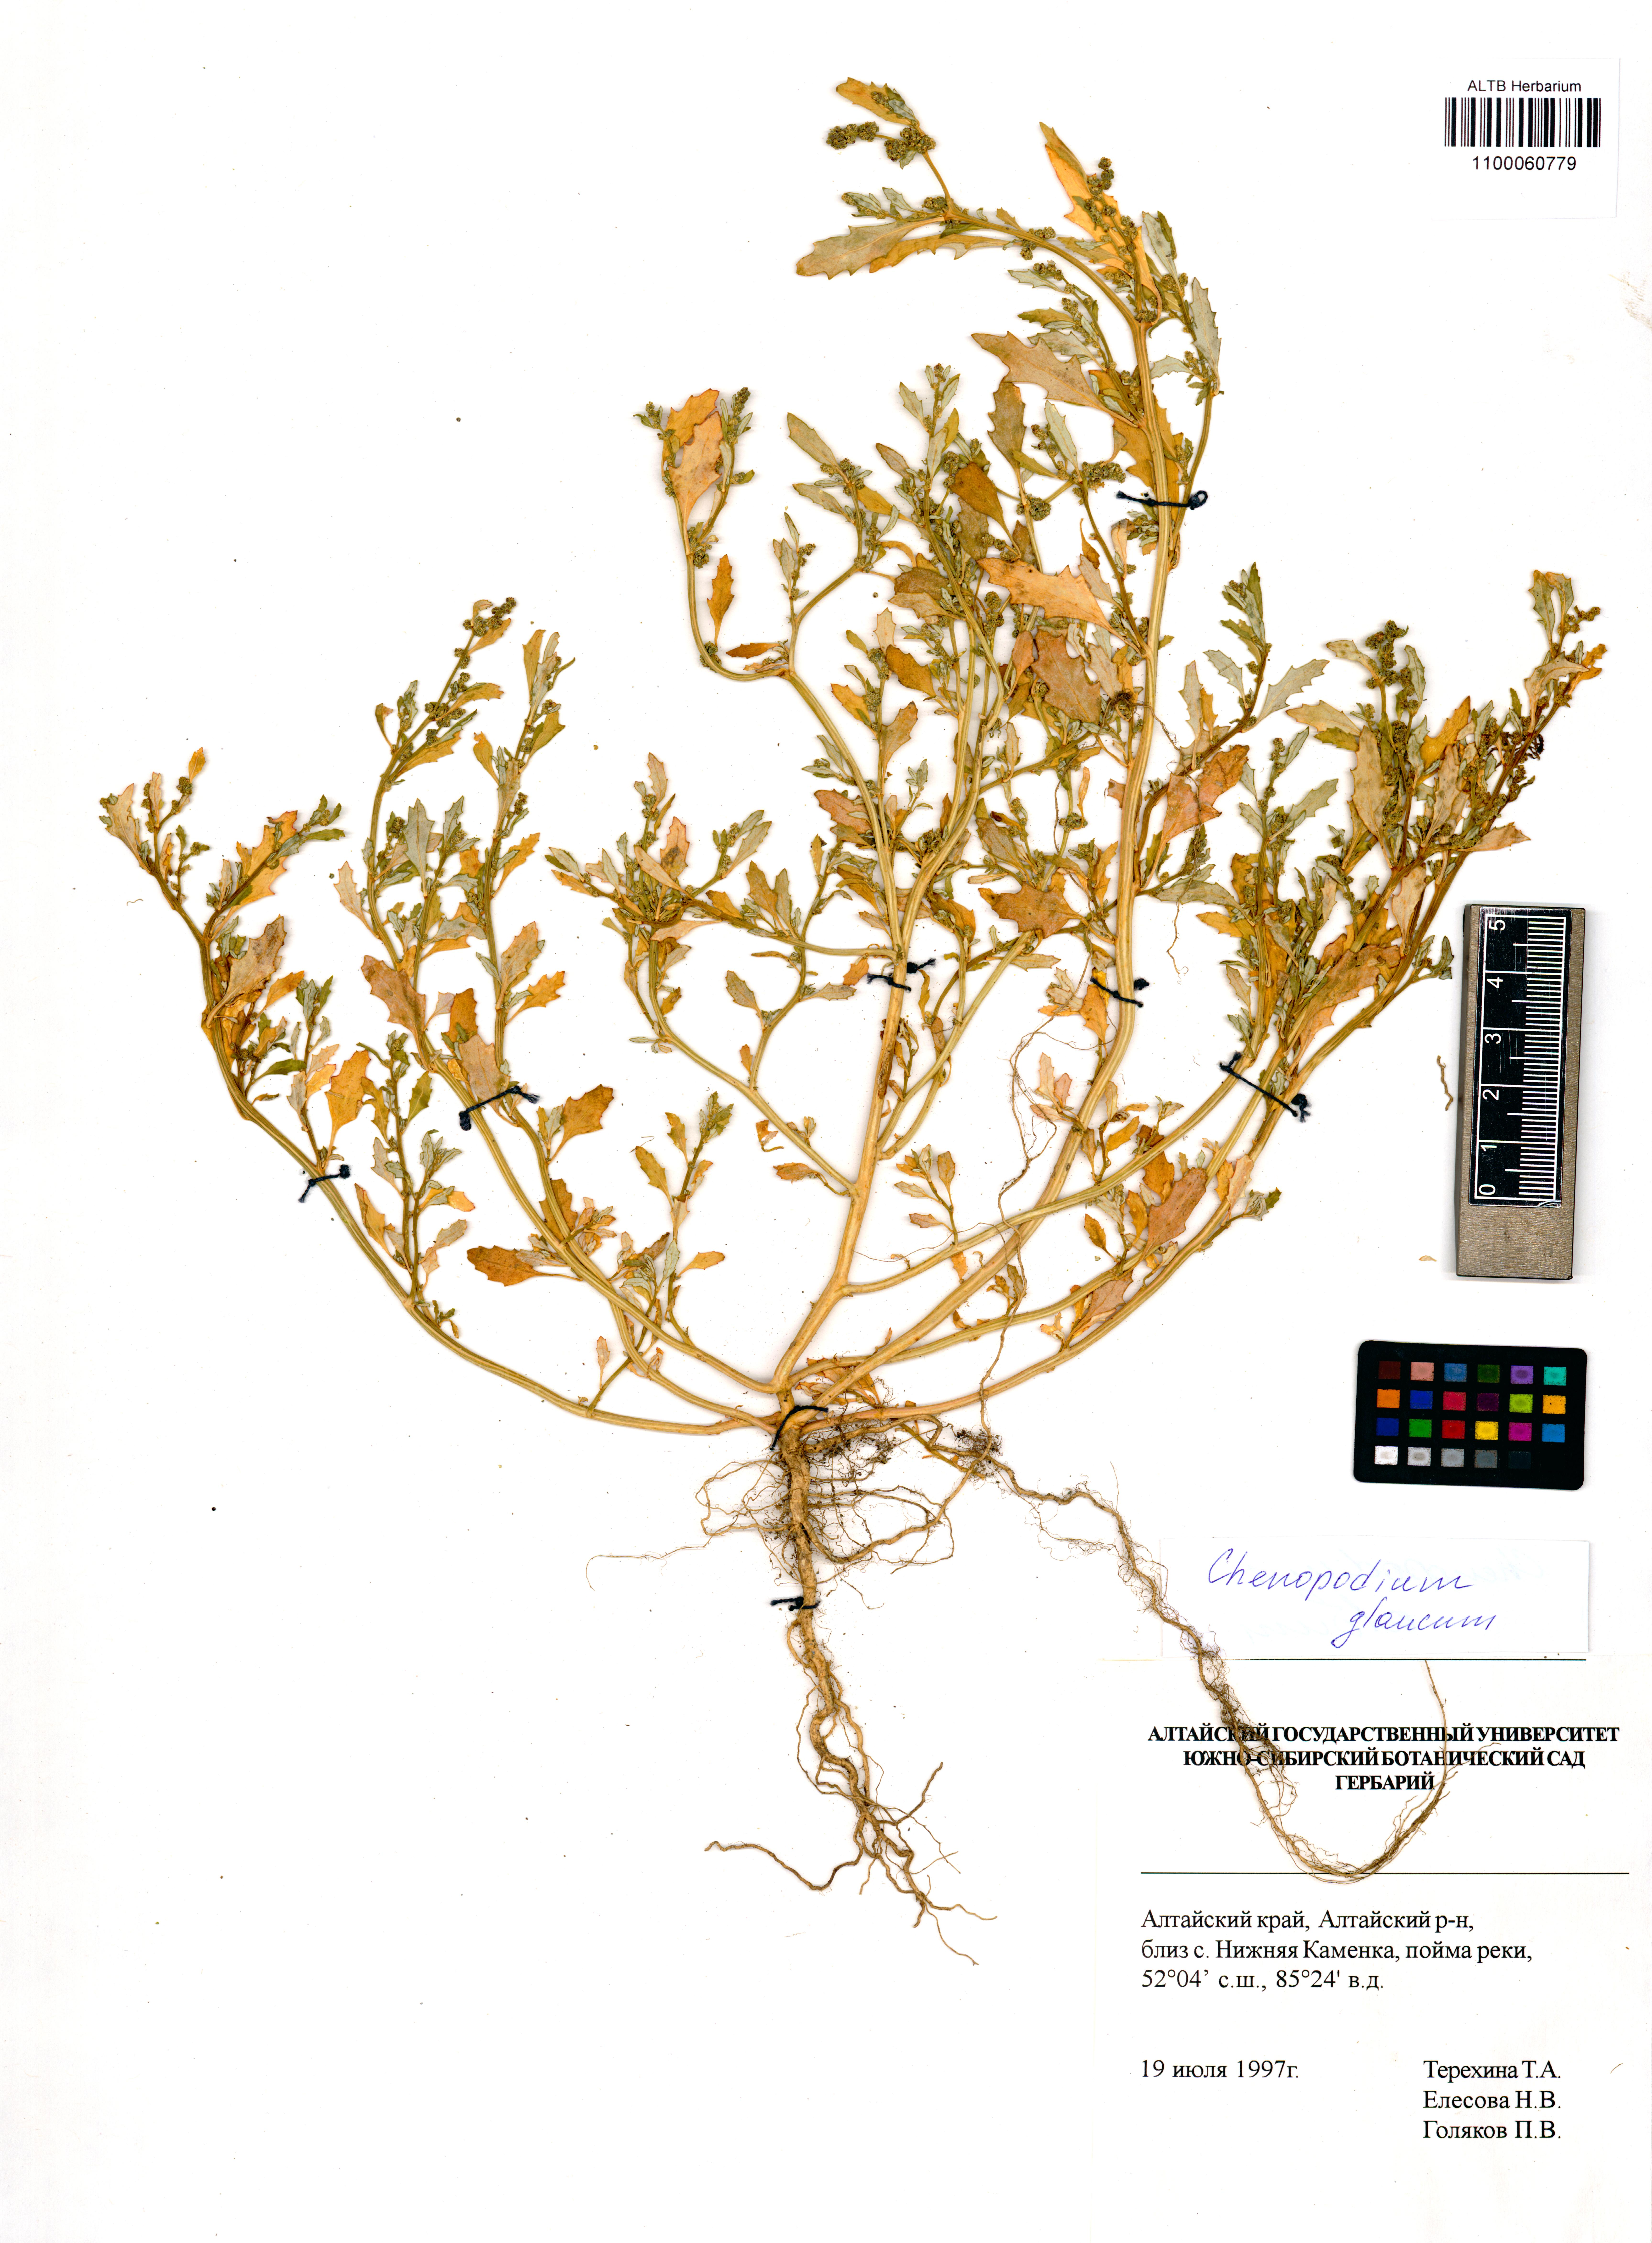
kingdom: Plantae
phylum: Tracheophyta
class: Magnoliopsida
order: Caryophyllales
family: Amaranthaceae
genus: Oxybasis
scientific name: Oxybasis glauca
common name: Glaucous goosefoot
